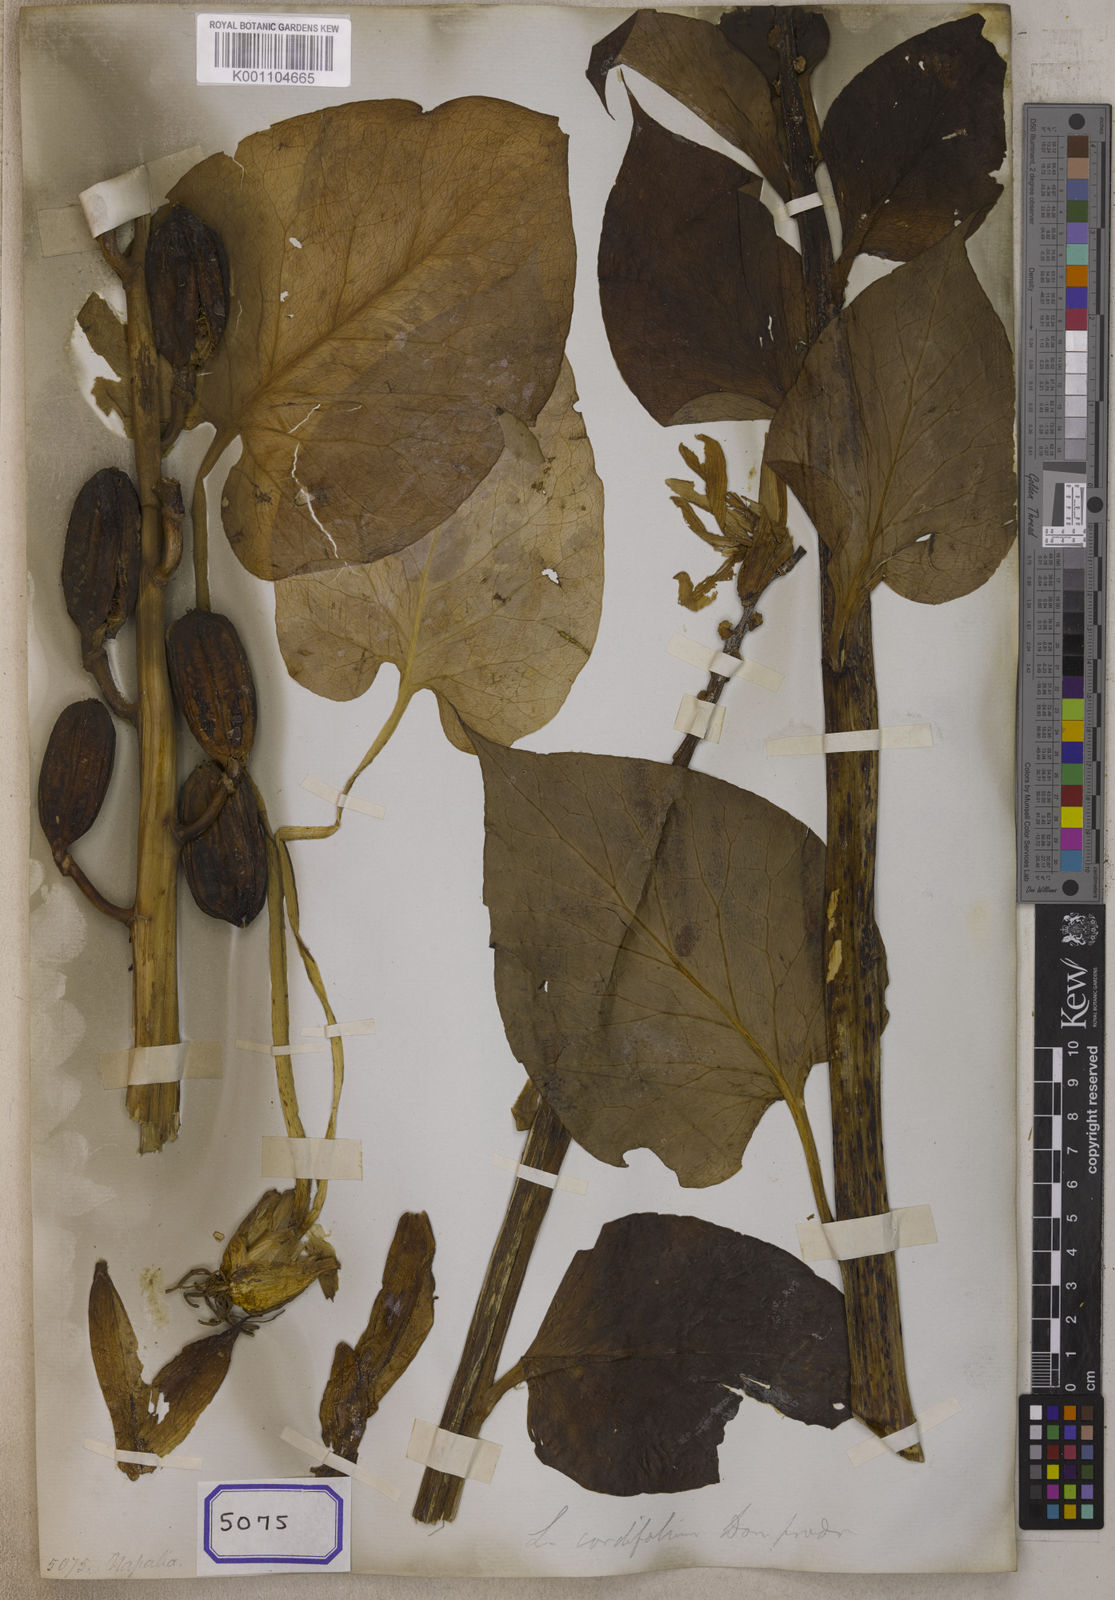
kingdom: Plantae
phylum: Tracheophyta
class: Liliopsida
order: Liliales
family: Liliaceae
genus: Cardiocrinum
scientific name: Cardiocrinum giganteum
